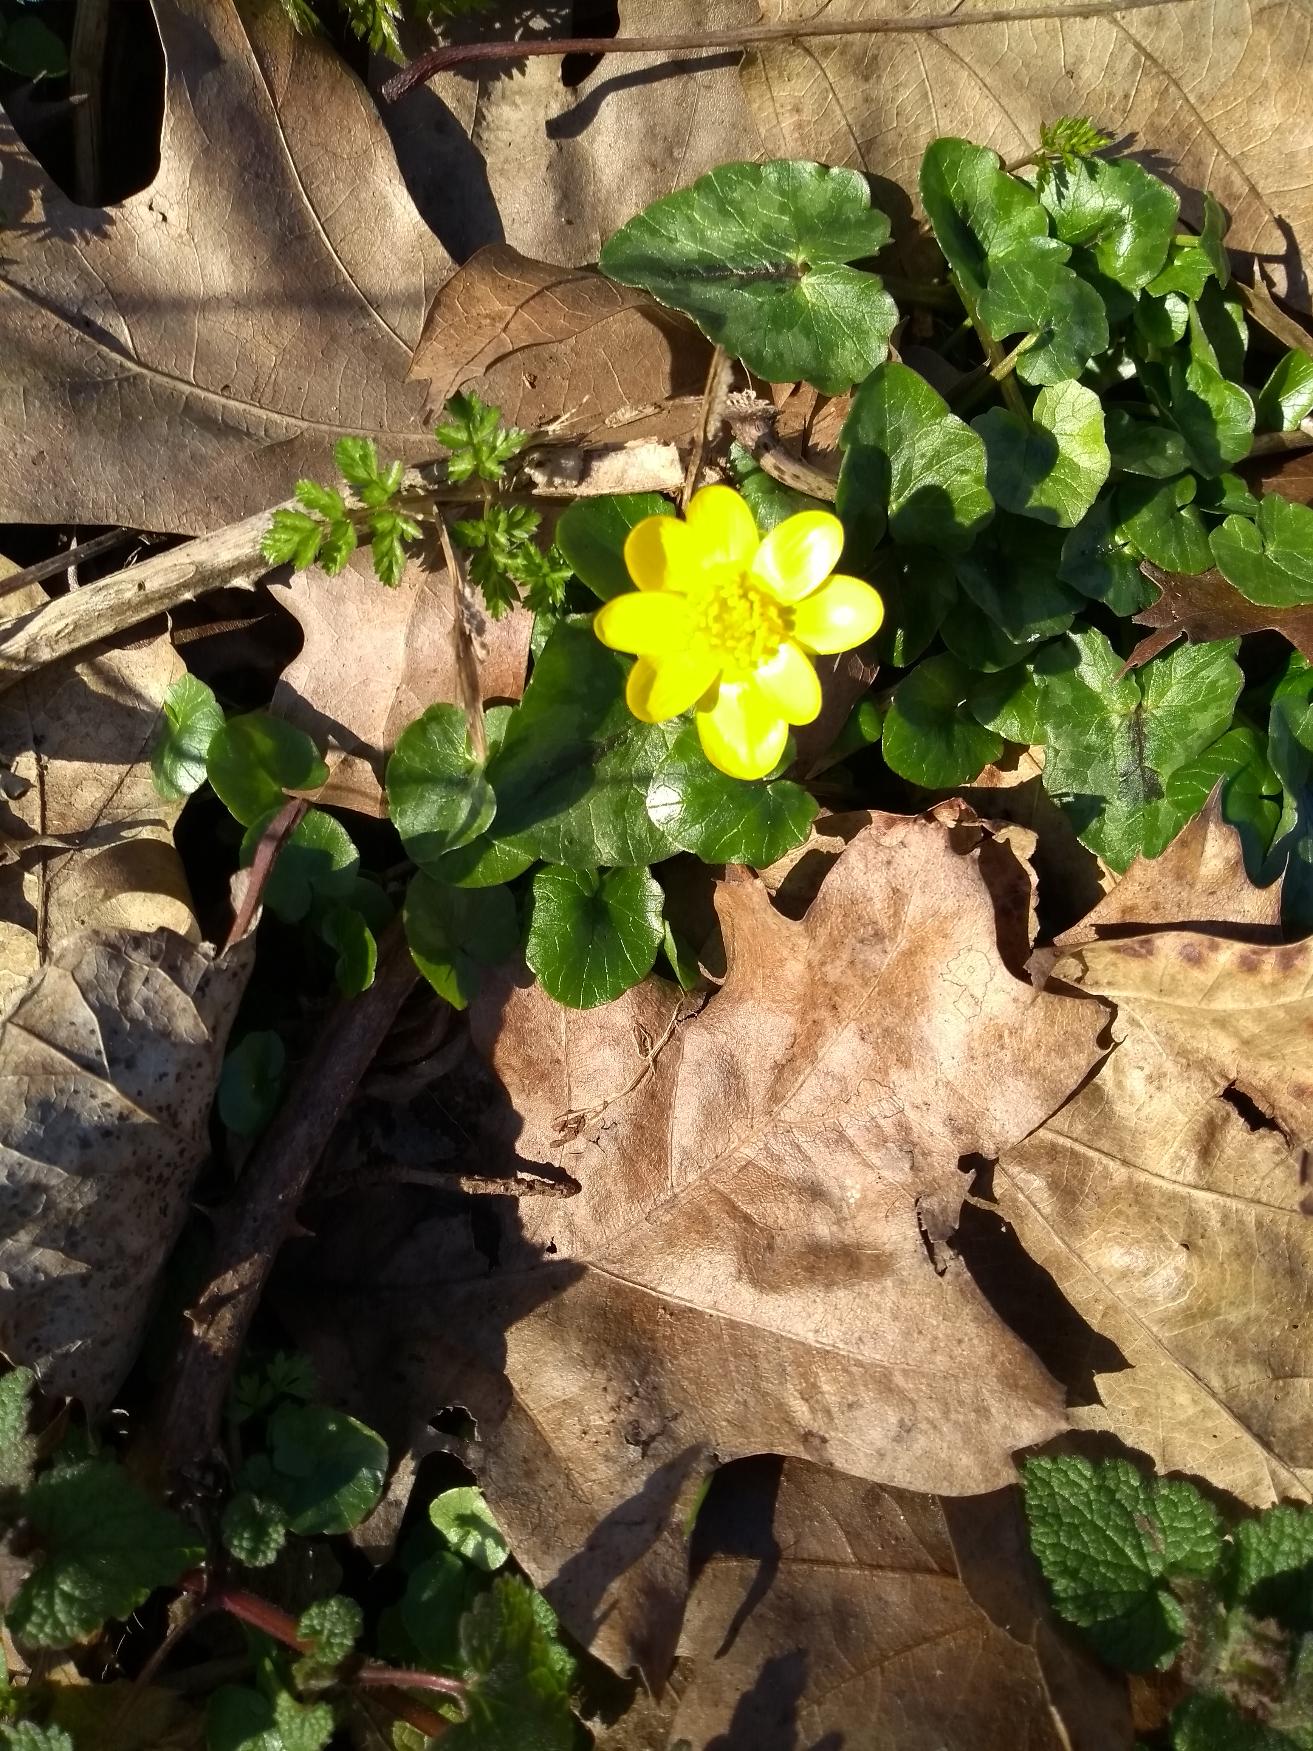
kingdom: Plantae
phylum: Tracheophyta
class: Magnoliopsida
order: Ranunculales
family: Ranunculaceae
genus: Ficaria
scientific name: Ficaria verna
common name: Vorterod
